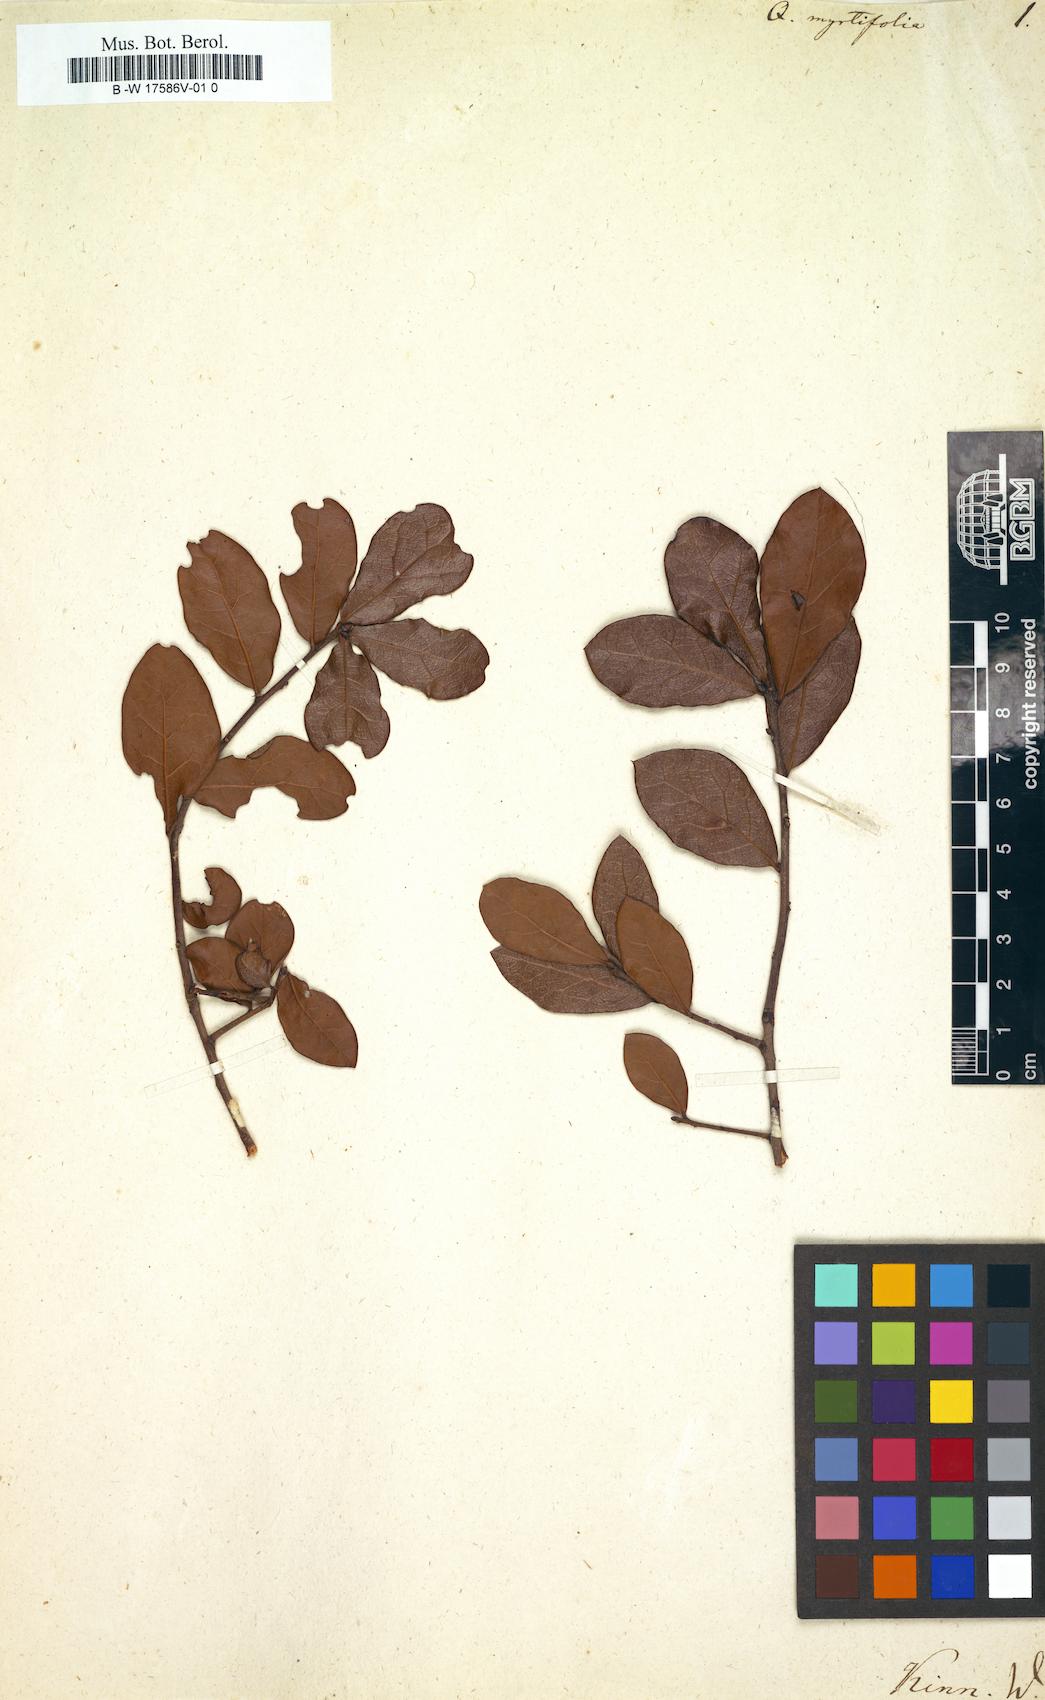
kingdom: Plantae
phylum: Tracheophyta
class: Magnoliopsida
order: Fagales
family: Fagaceae
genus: Quercus
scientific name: Quercus myrtifolia
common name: Myrtle oak
